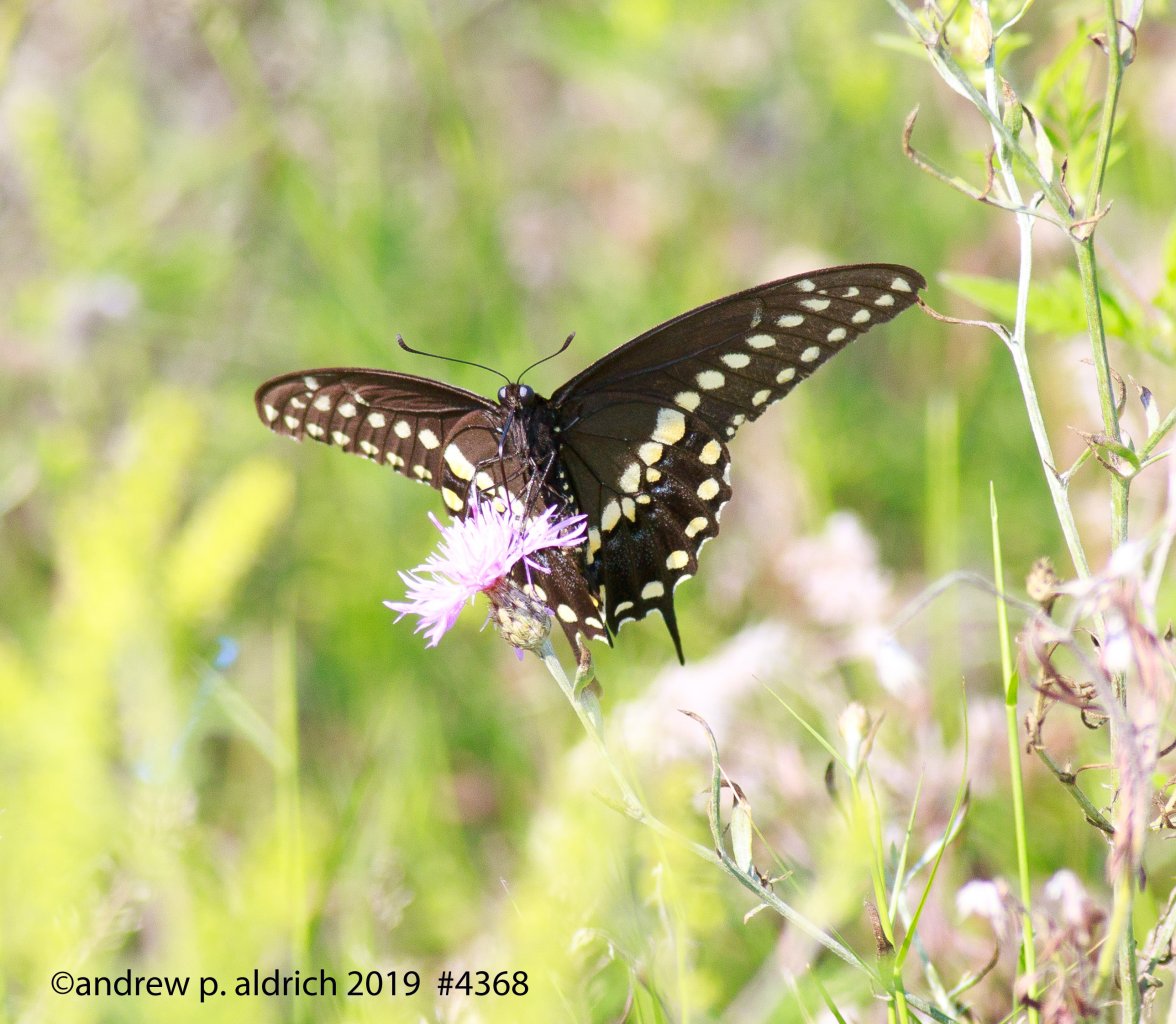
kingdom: Animalia
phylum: Arthropoda
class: Insecta
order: Lepidoptera
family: Papilionidae
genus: Papilio
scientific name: Papilio polyxenes
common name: Black Swallowtail
